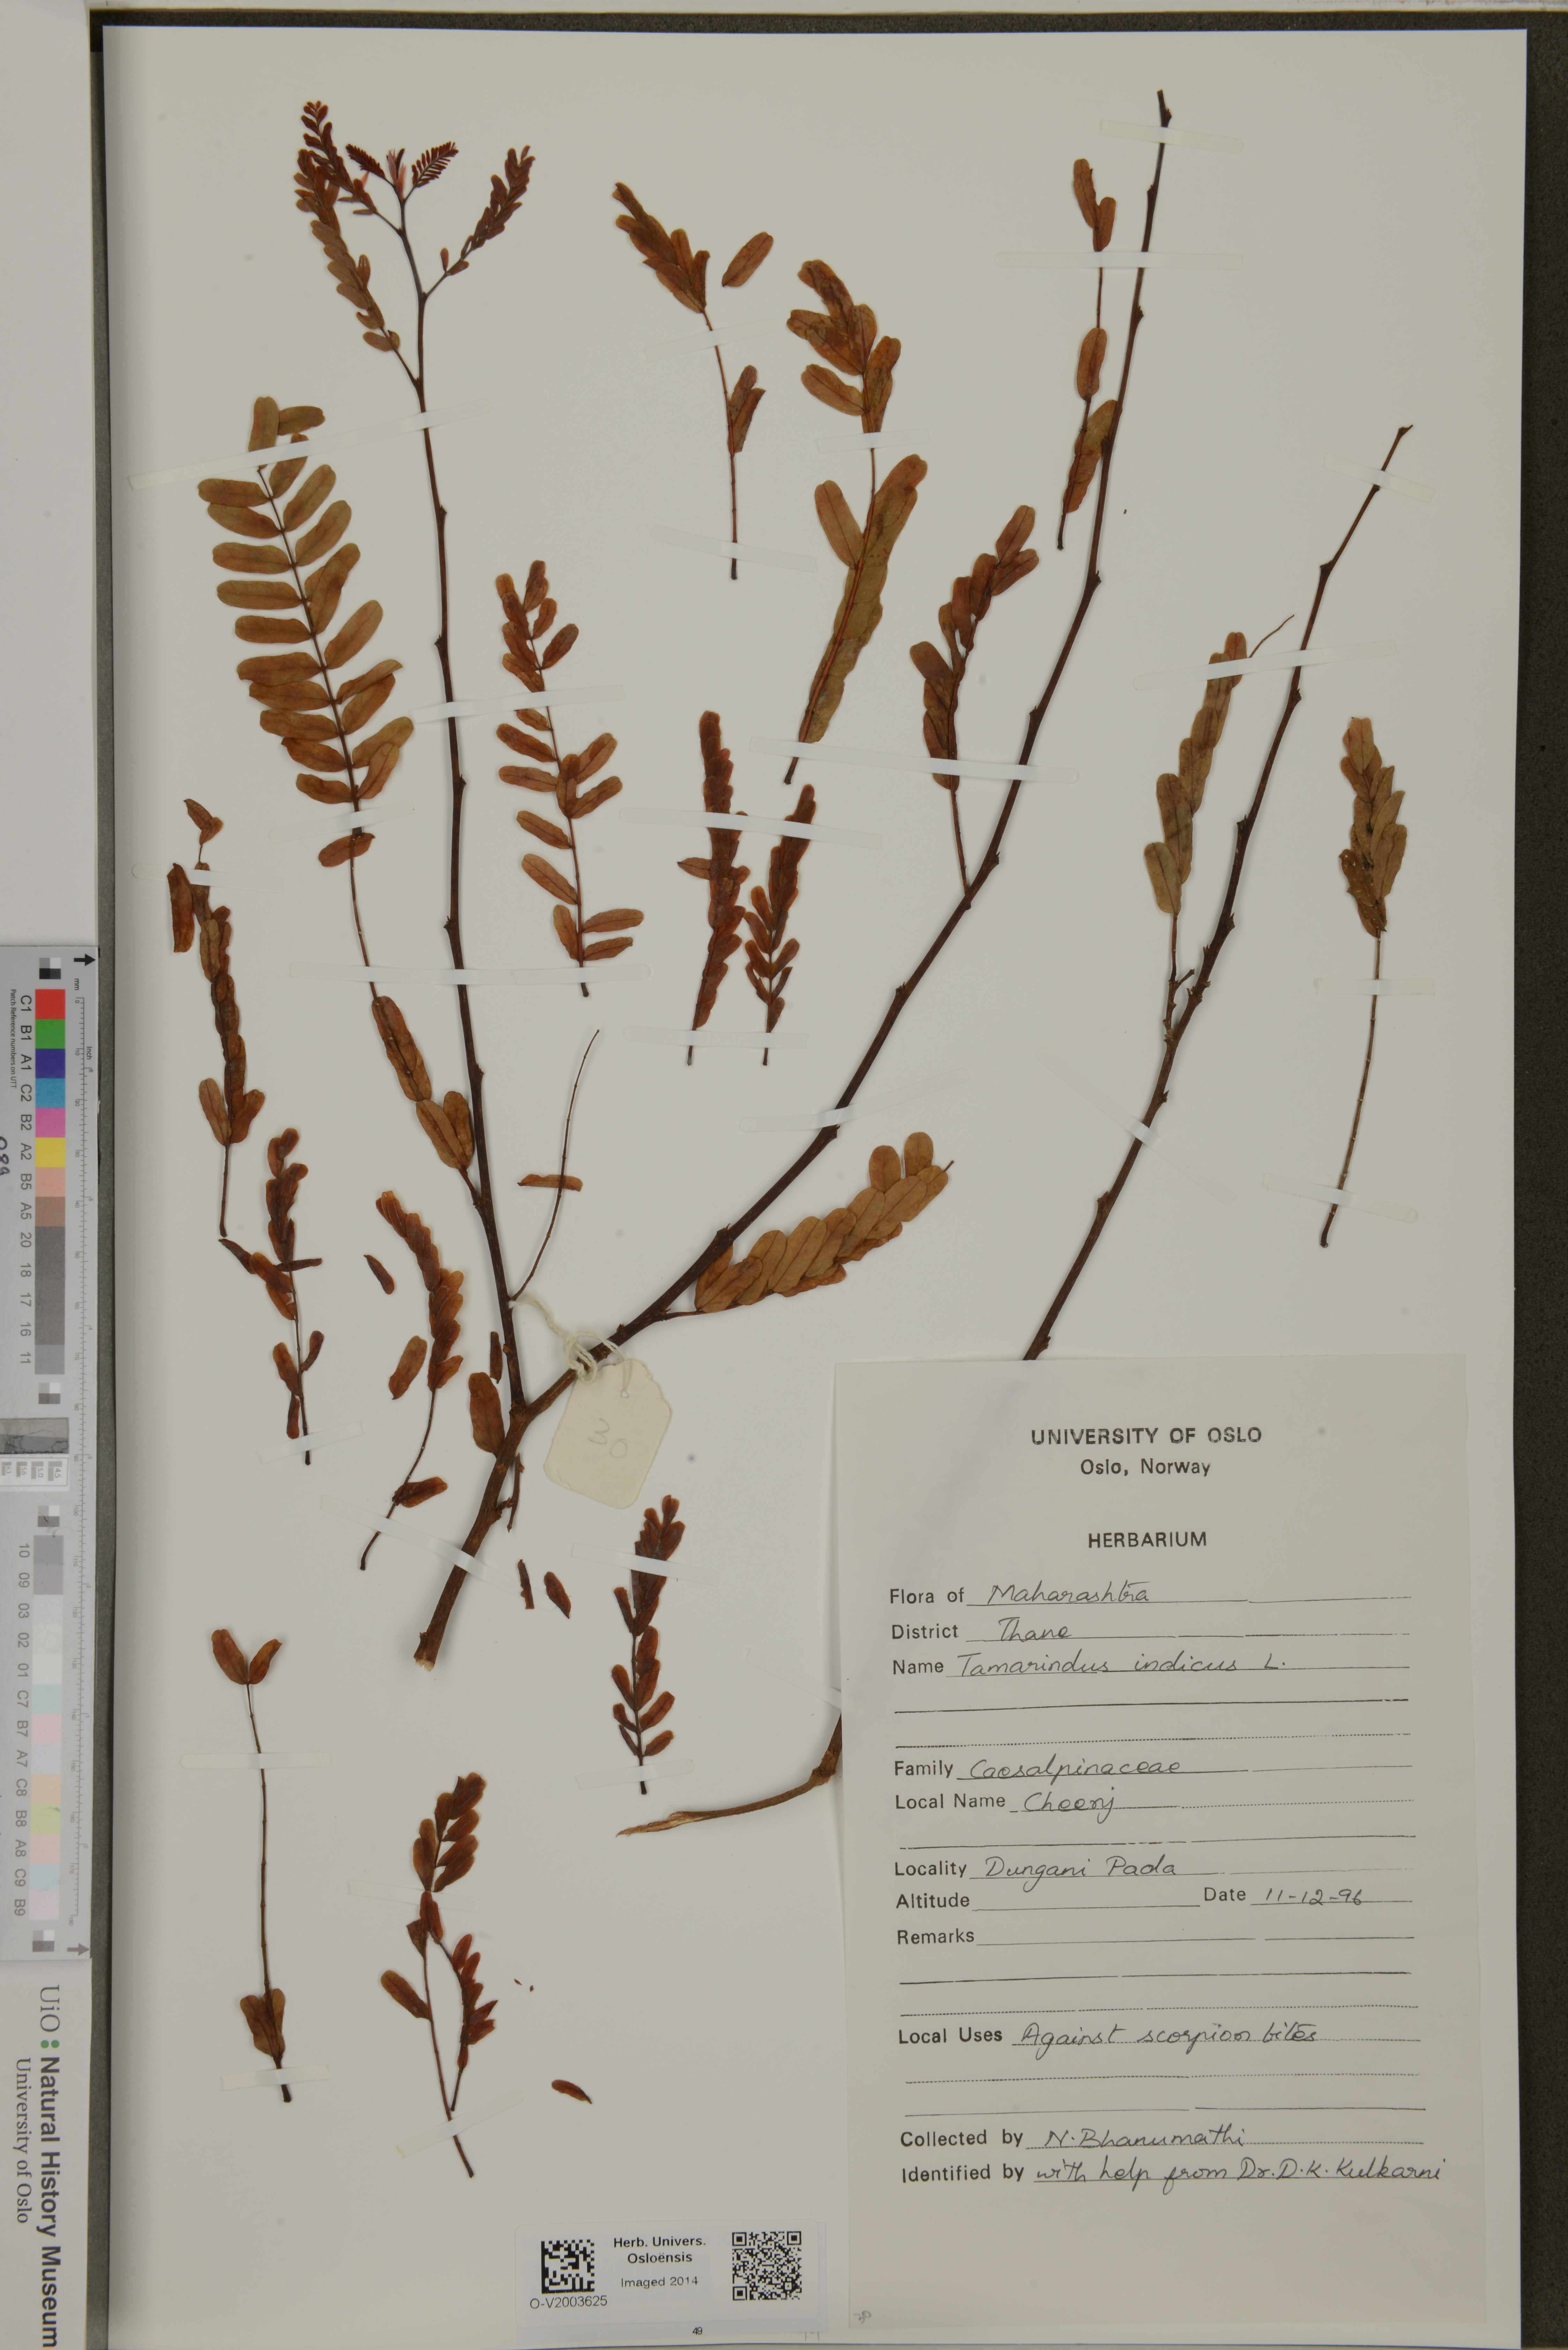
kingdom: Plantae
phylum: Tracheophyta
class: Magnoliopsida
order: Fabales
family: Fabaceae
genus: Tamarindus
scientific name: Tamarindus indica
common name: Tamarind
